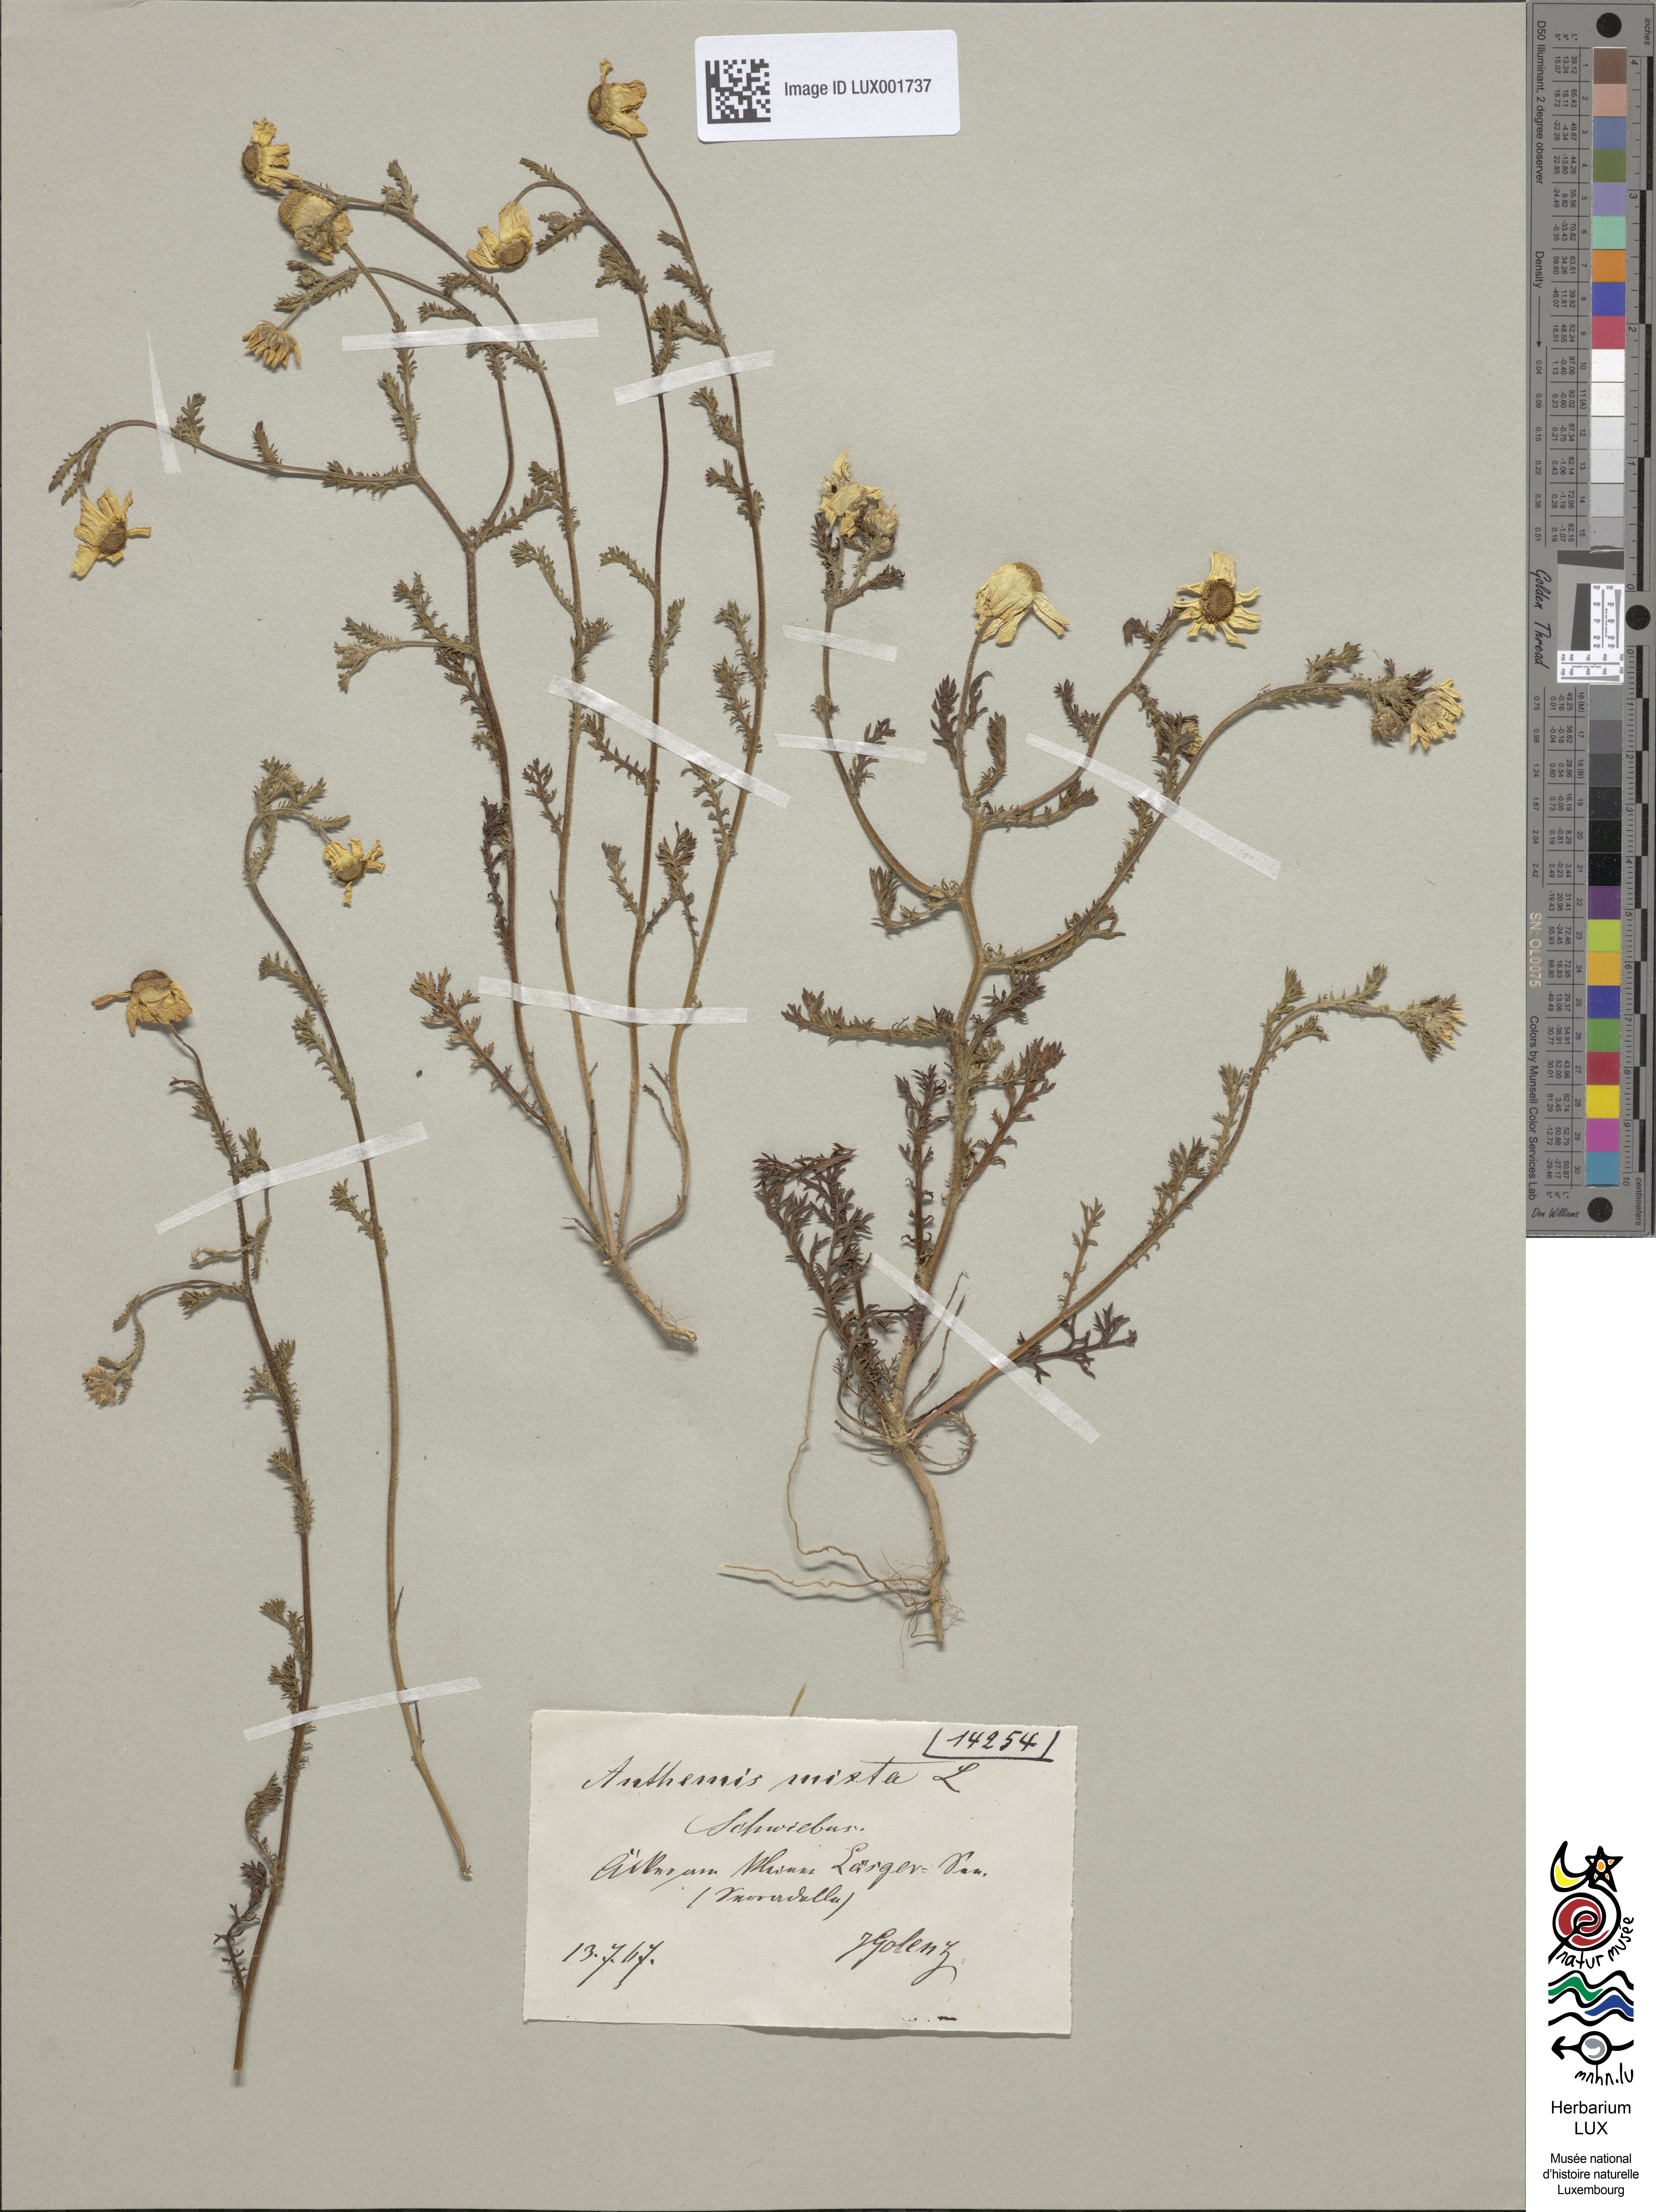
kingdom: Plantae
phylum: Tracheophyta
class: Magnoliopsida
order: Asterales
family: Asteraceae
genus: Cladanthus
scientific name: Cladanthus mixtus
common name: Weedy dogfennel
